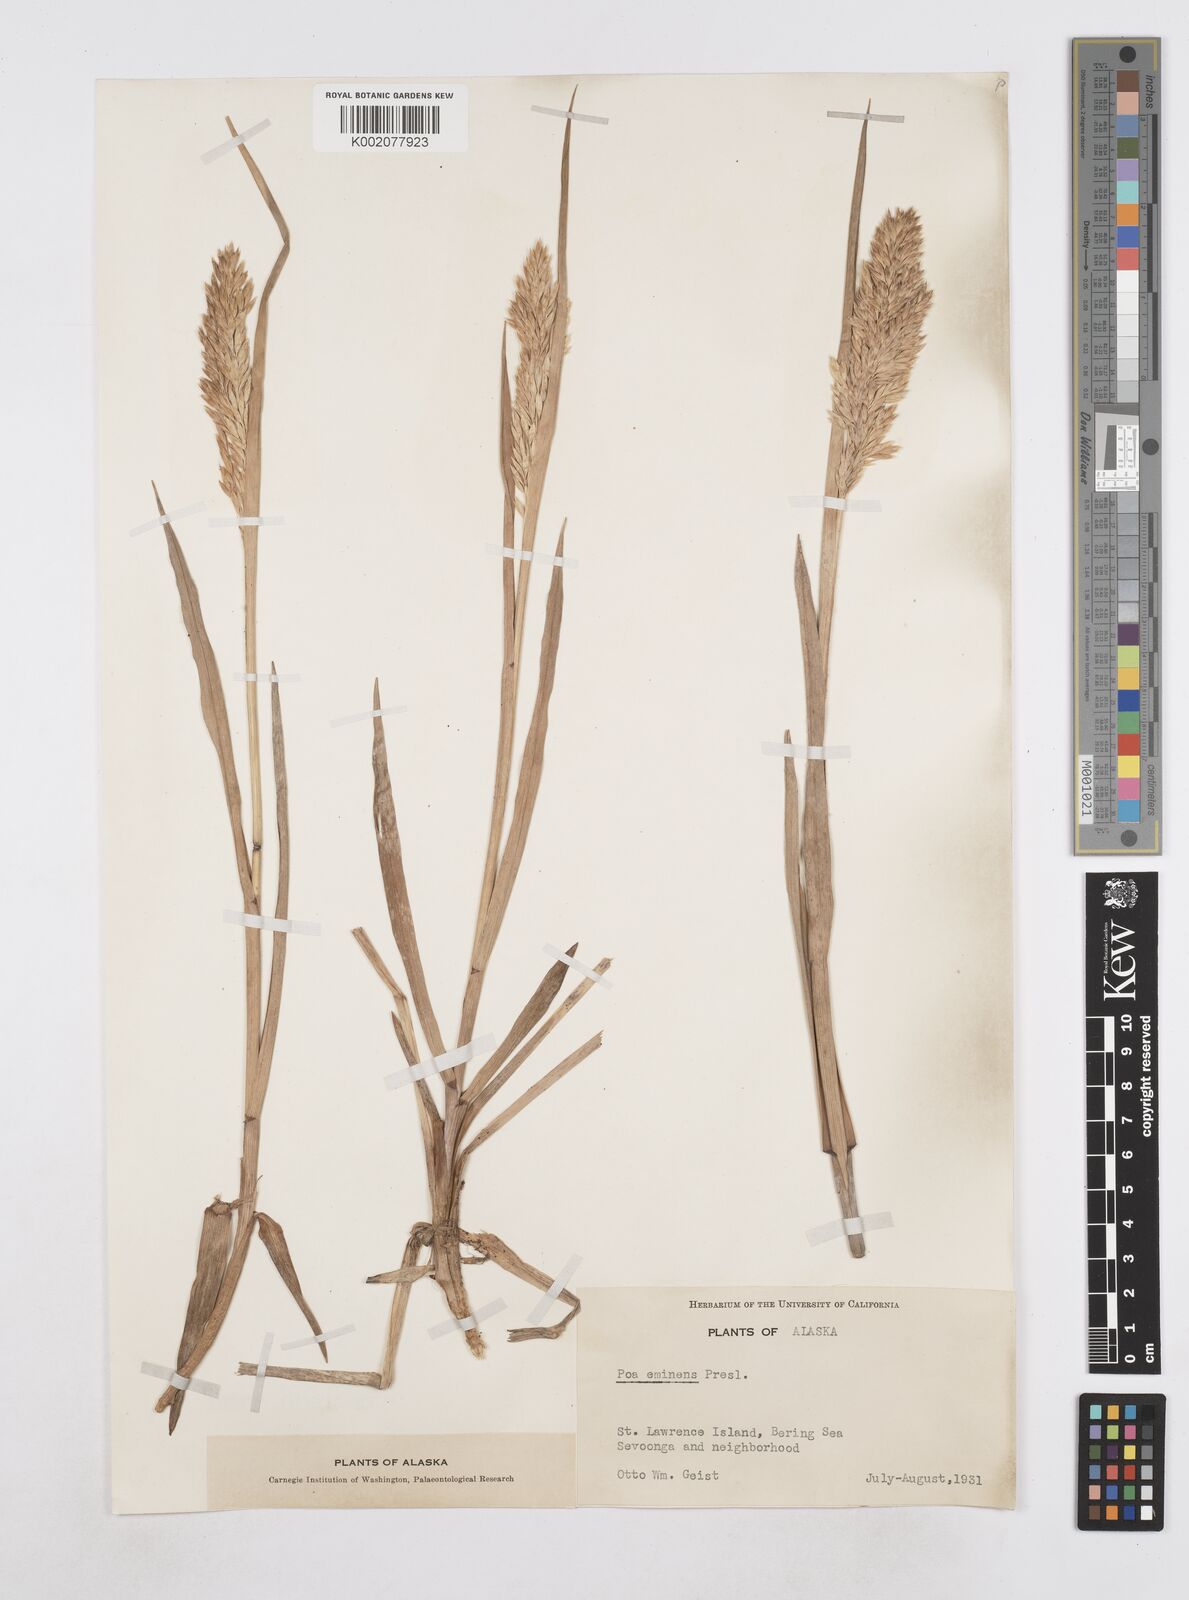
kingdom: Plantae
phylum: Tracheophyta
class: Liliopsida
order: Poales
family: Poaceae
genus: Arctopoa
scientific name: Arctopoa eminens
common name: Eminent bluegrass
